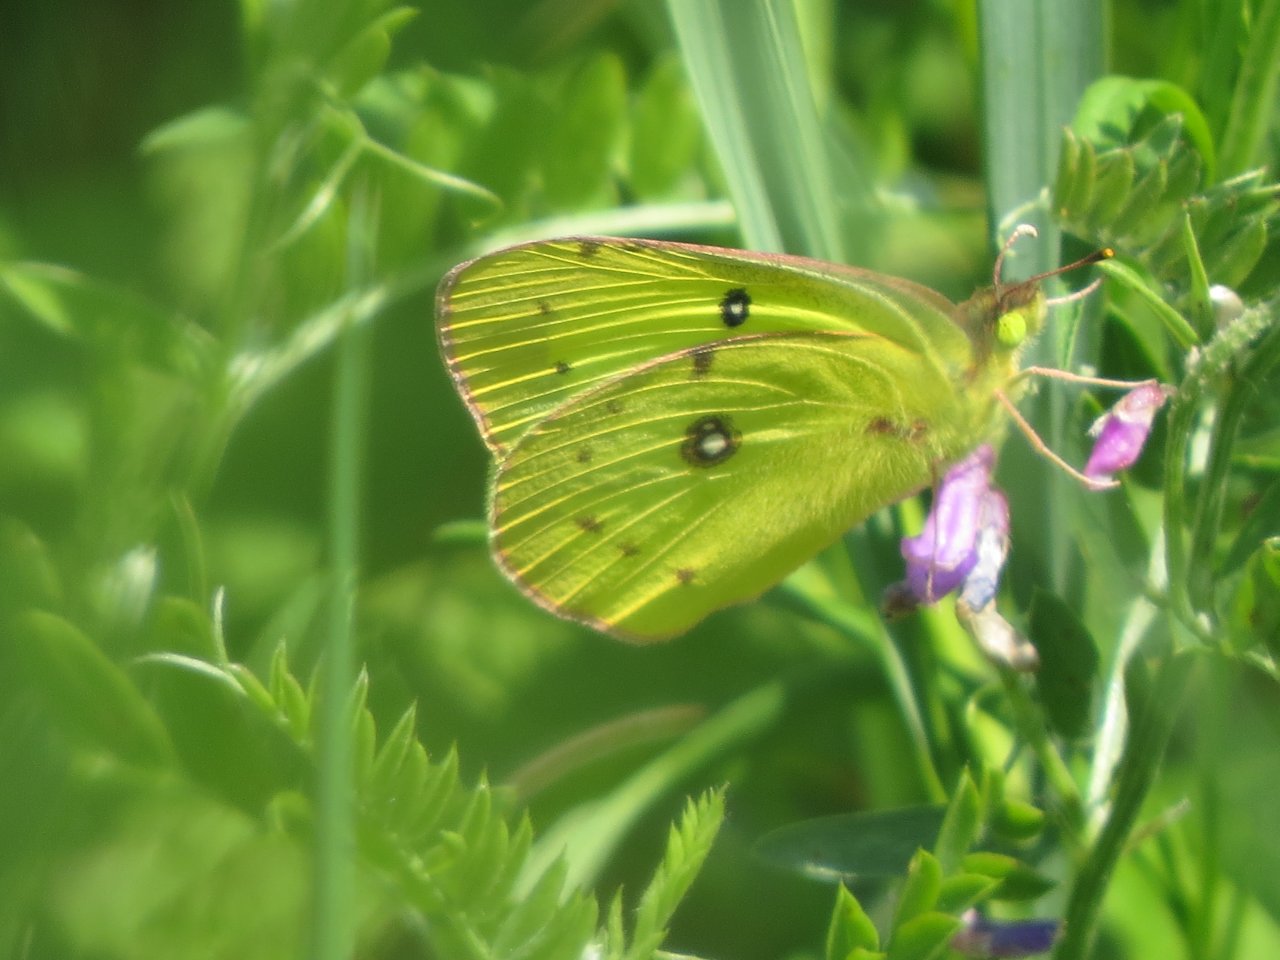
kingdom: Animalia
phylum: Arthropoda
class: Insecta
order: Lepidoptera
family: Pieridae
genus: Colias
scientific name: Colias philodice
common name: Clouded Sulphur
